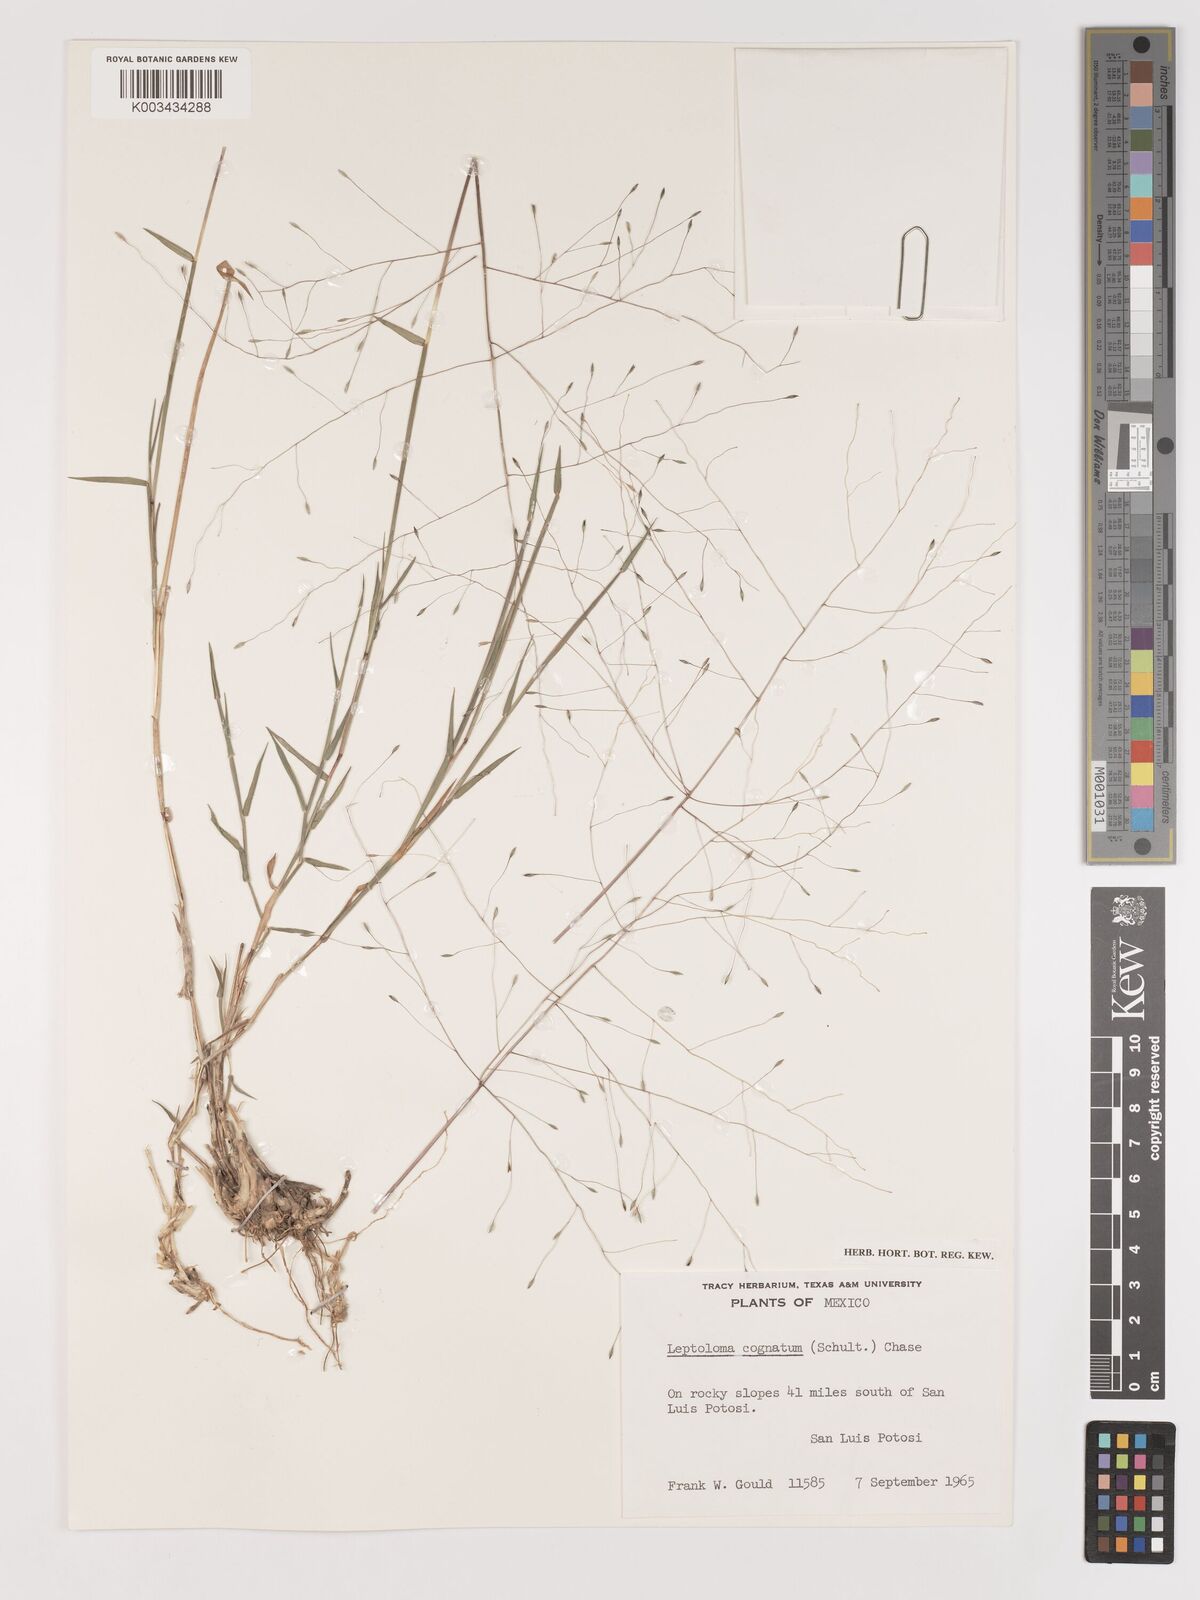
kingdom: Plantae
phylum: Tracheophyta
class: Liliopsida
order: Poales
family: Poaceae
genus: Digitaria
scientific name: Digitaria cognata
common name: Fall witchgrass
